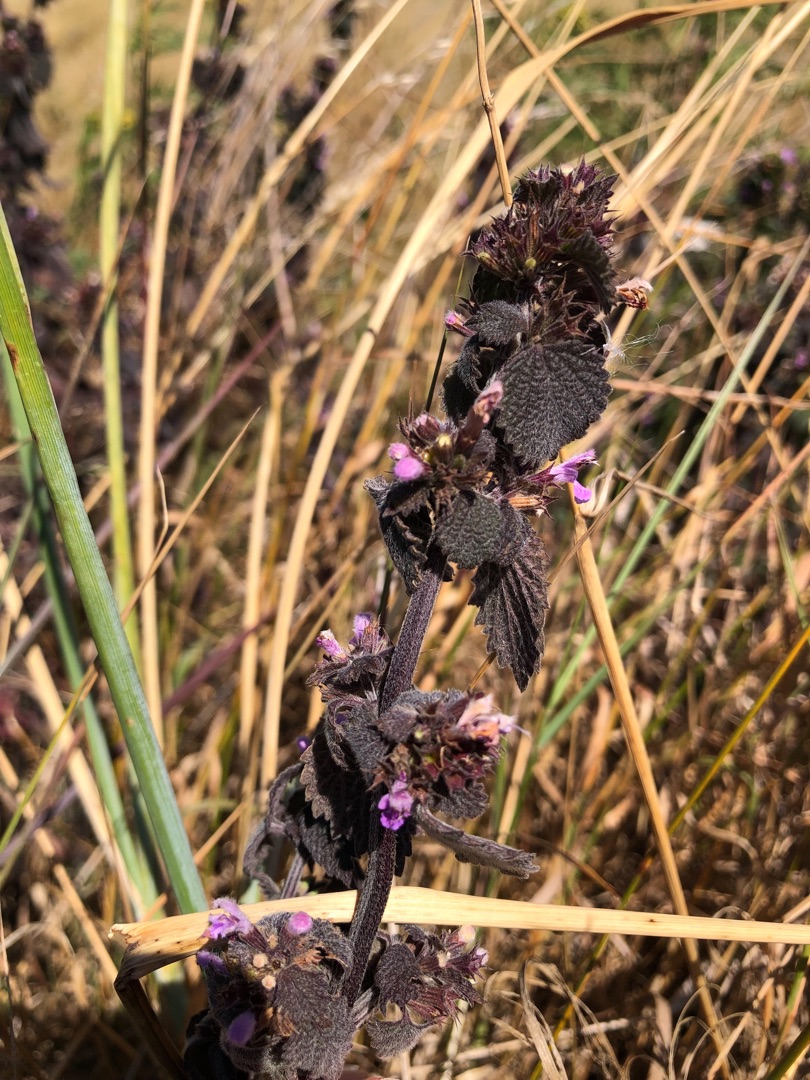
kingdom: Plantae
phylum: Tracheophyta
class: Magnoliopsida
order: Lamiales
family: Lamiaceae
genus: Ballota
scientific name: Ballota nigra
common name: Rød tandbæger
